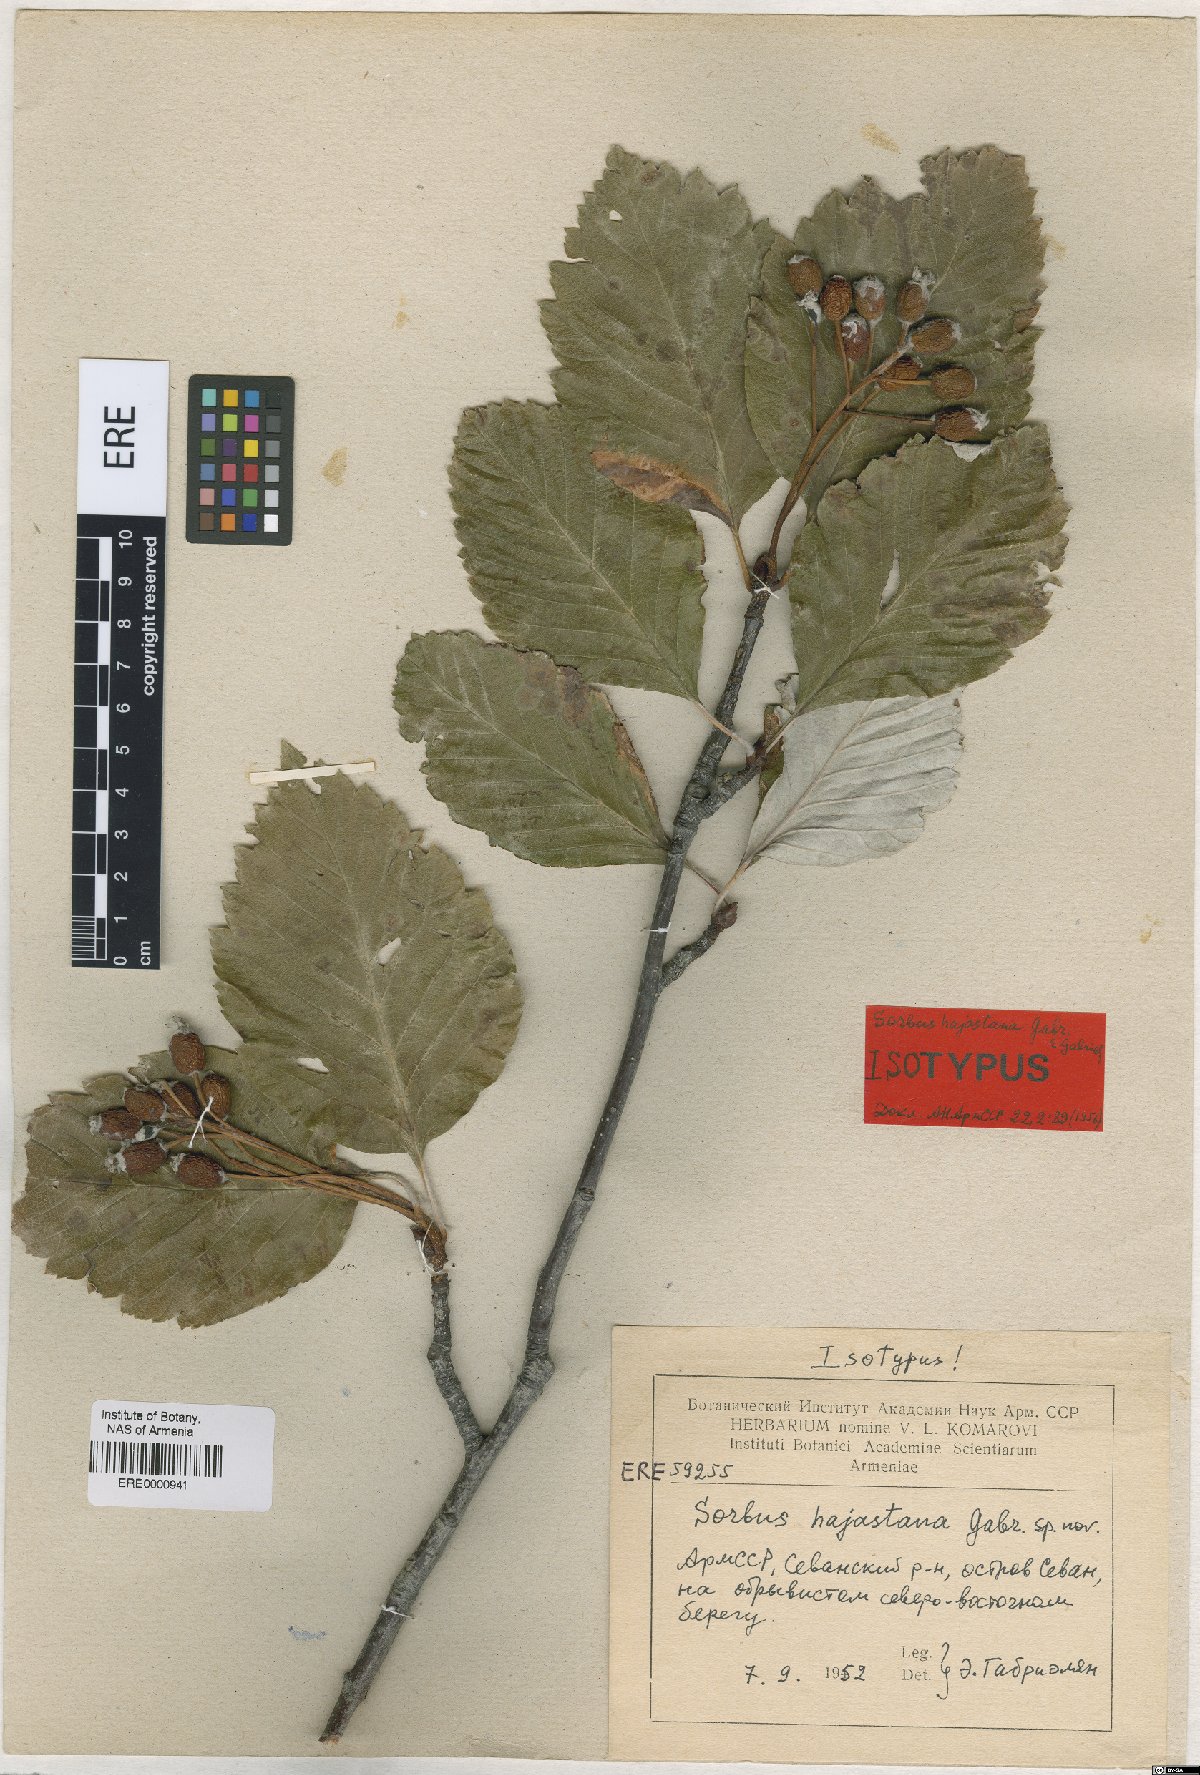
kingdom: Plantae
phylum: Tracheophyta
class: Magnoliopsida
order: Rosales
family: Rosaceae
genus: Sorbus
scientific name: Sorbus hajastana
